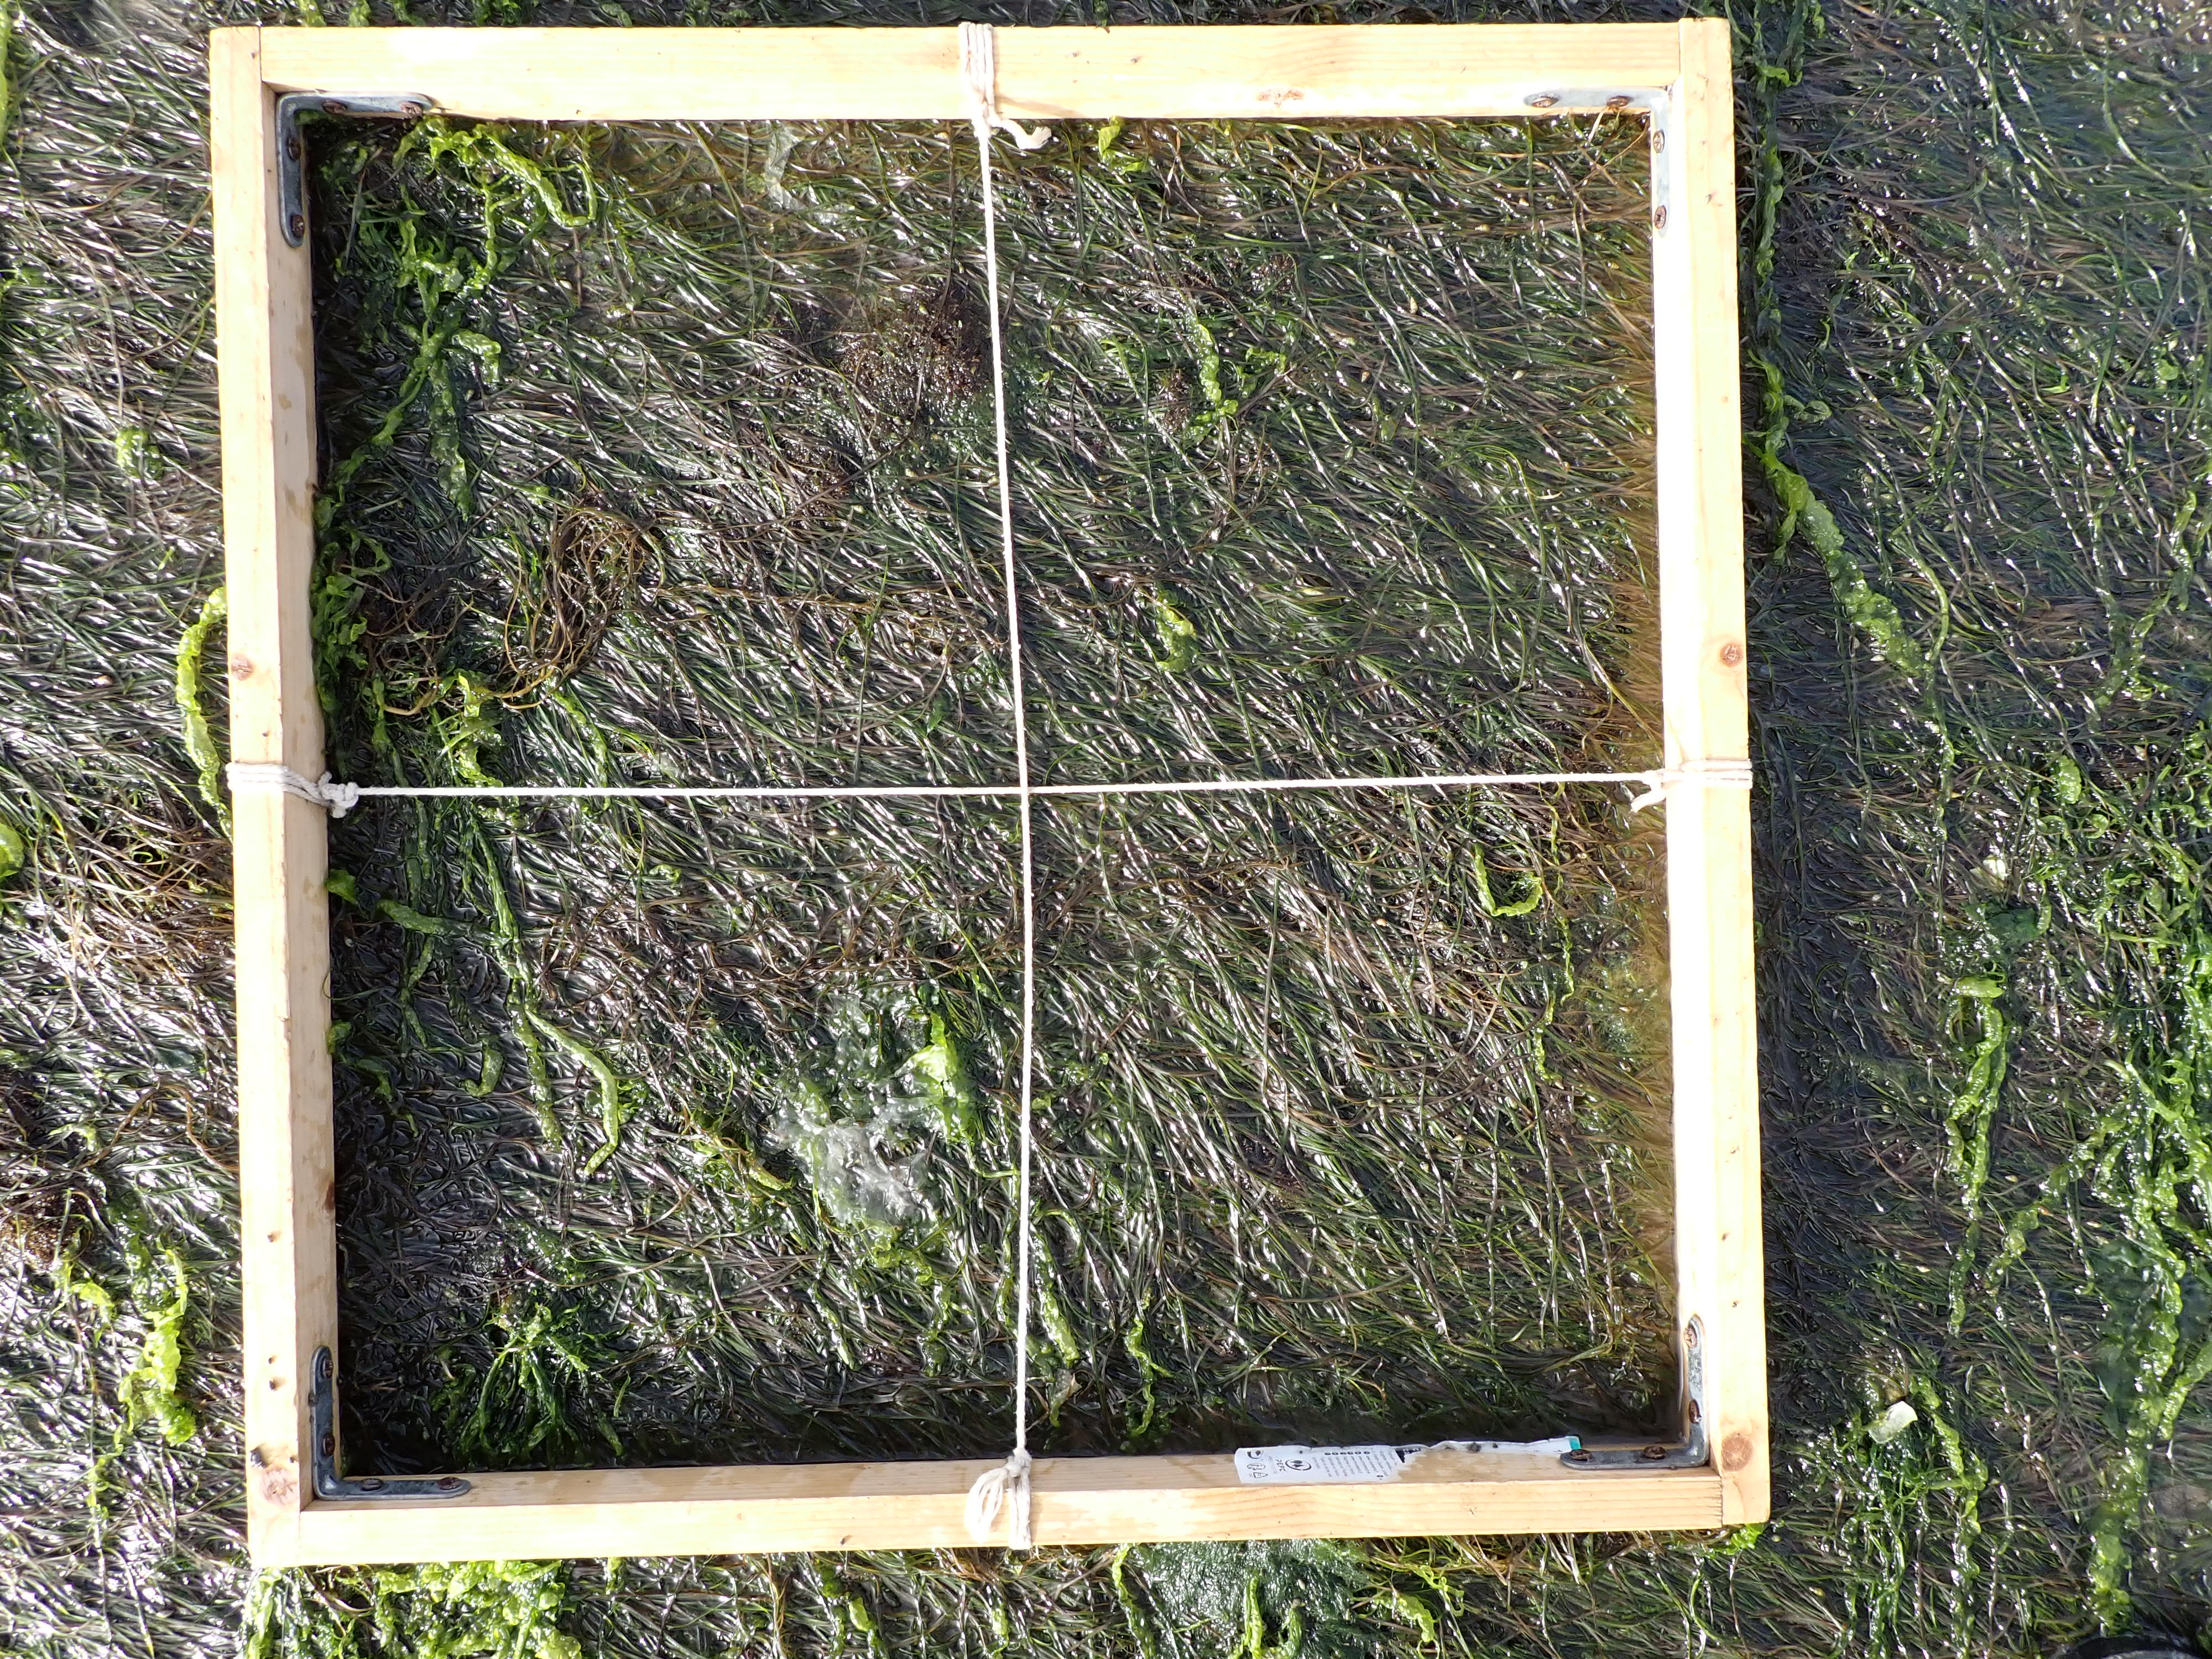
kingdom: Plantae
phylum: Chlorophyta
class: Ulvophyceae
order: Ulvales
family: Ulvaceae
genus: Ulva
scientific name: Ulva
